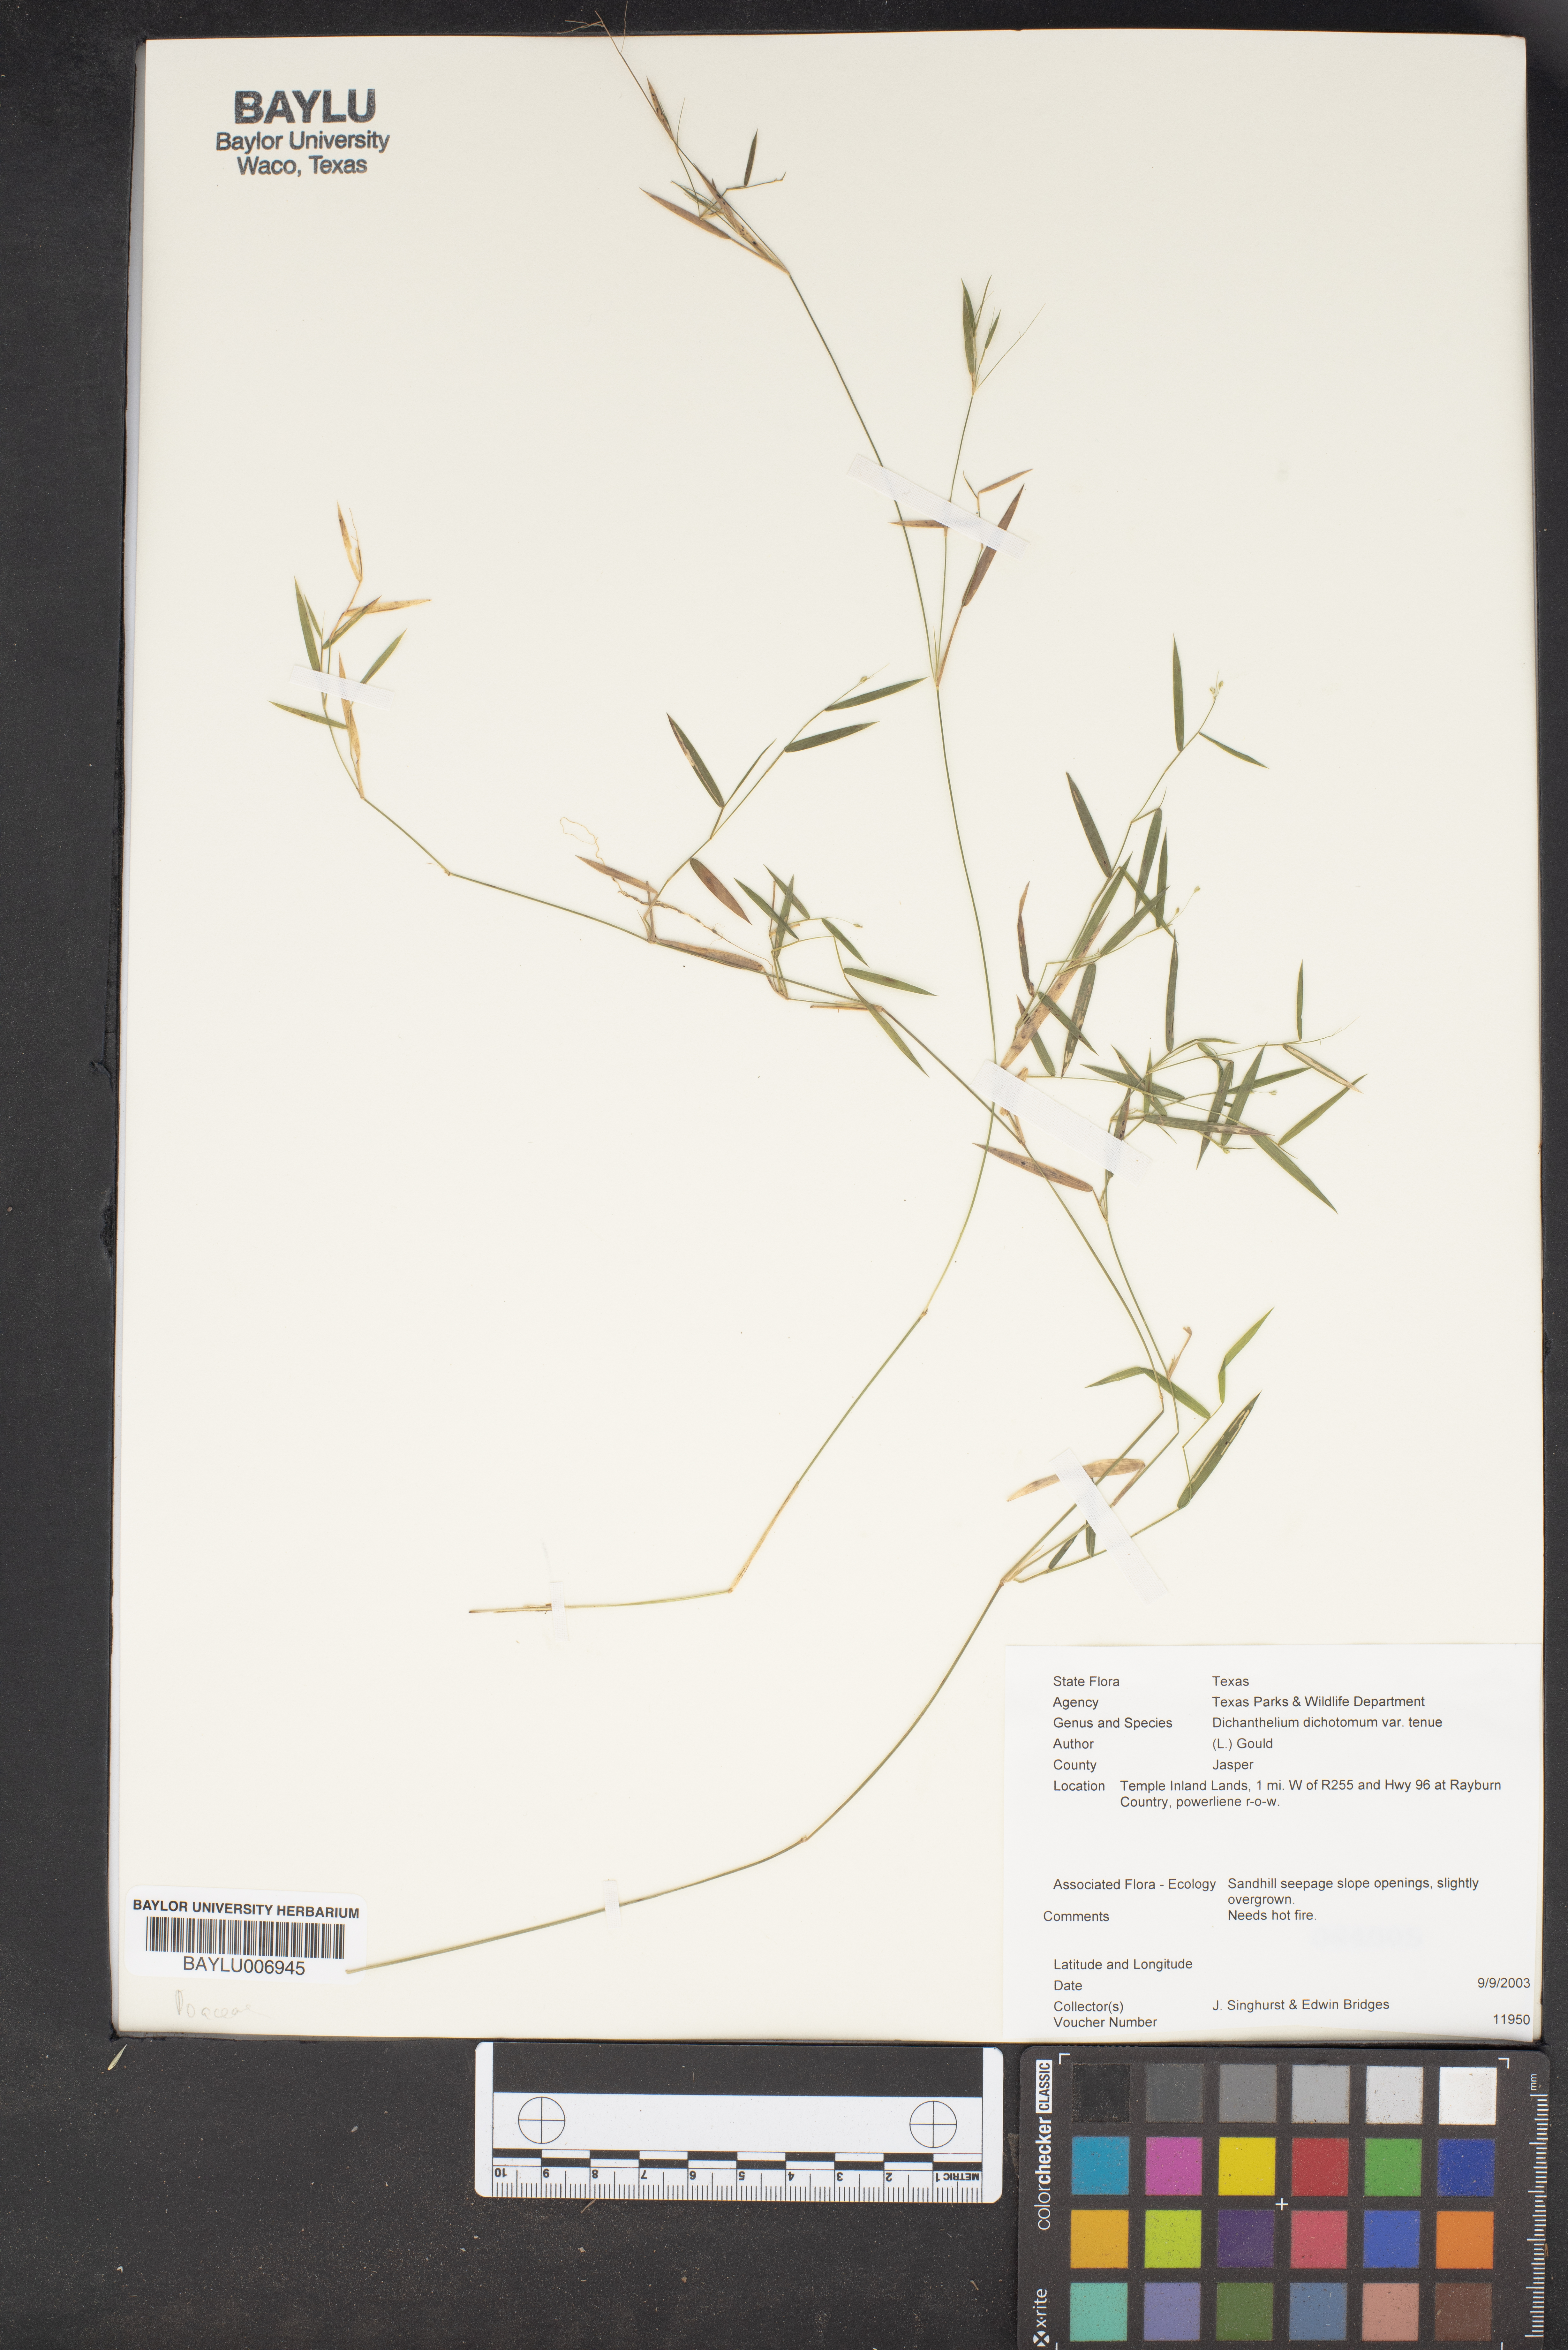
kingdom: Plantae
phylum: Tracheophyta
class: Liliopsida
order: Poales
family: Poaceae
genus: Dichanthelium
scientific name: Dichanthelium tenue
